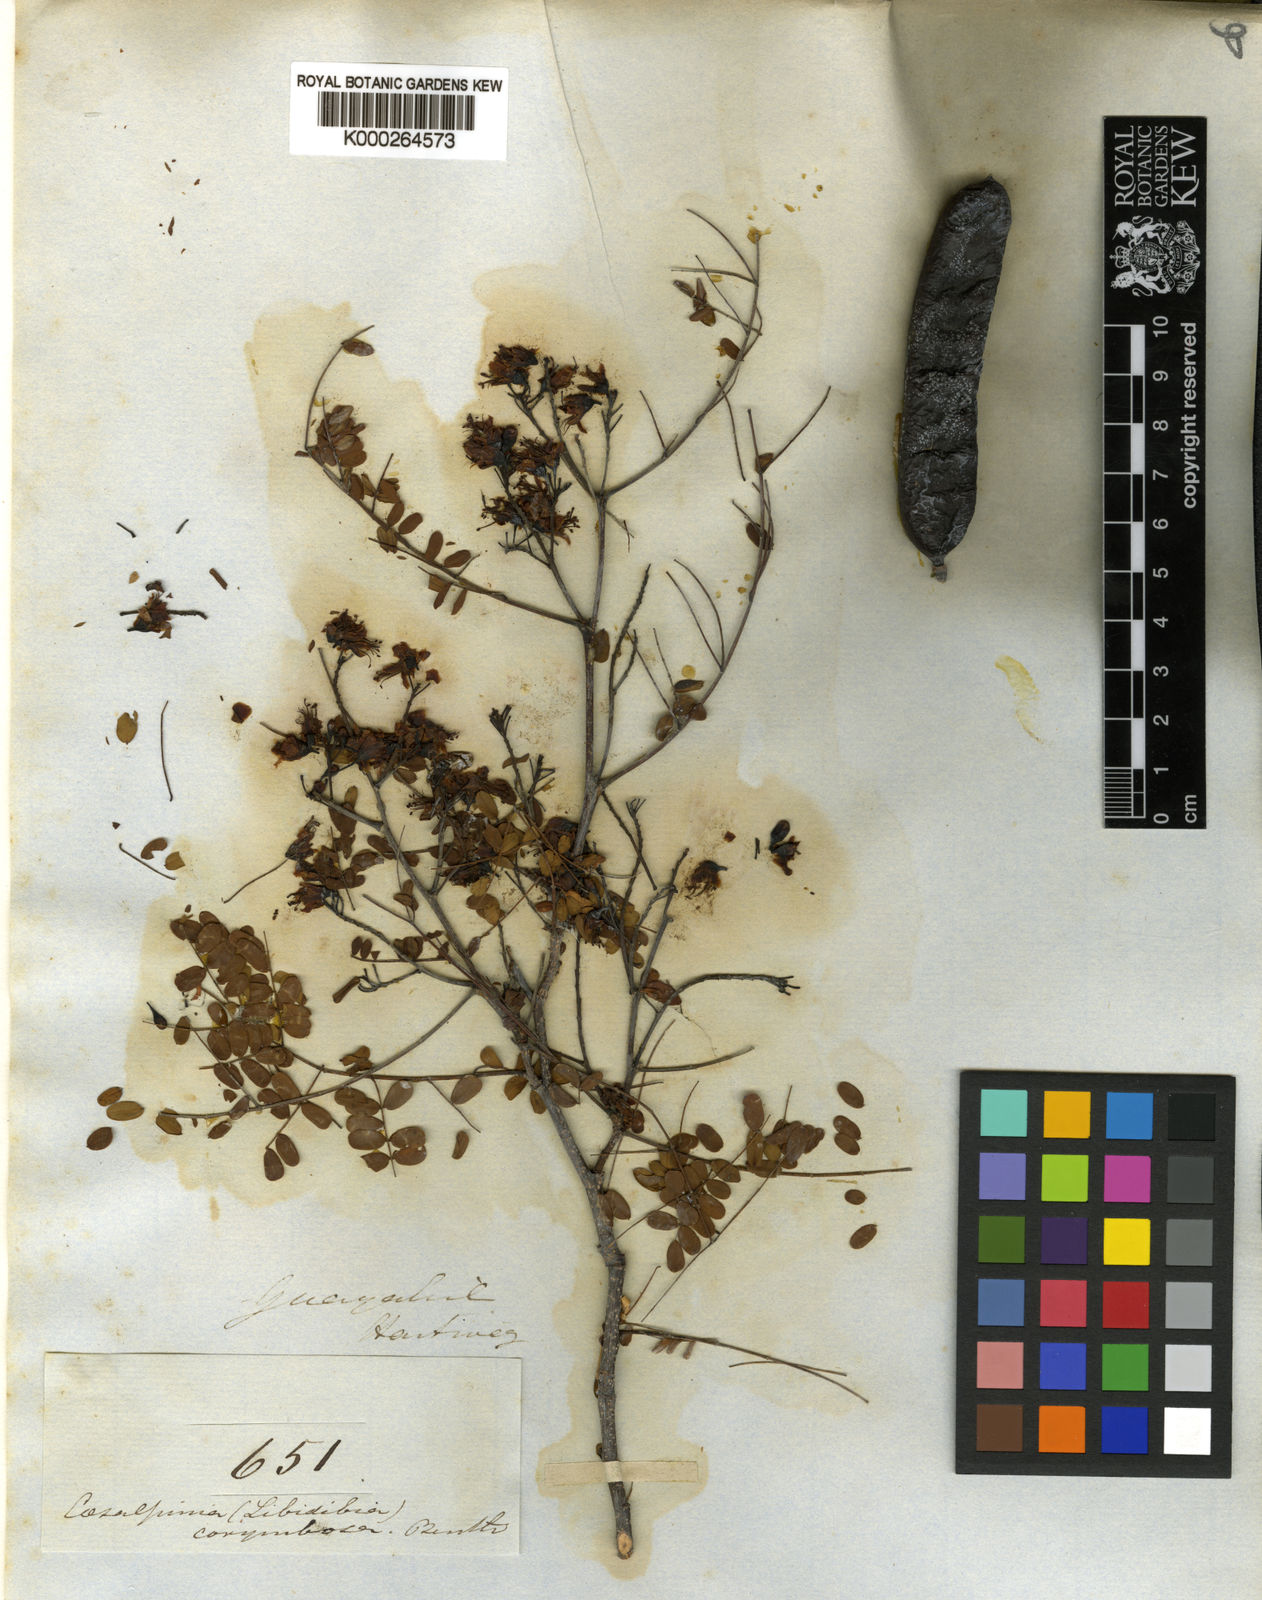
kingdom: Plantae
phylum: Tracheophyta
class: Magnoliopsida
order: Fabales
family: Fabaceae
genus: Libidibia
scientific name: Libidibia glabrata
